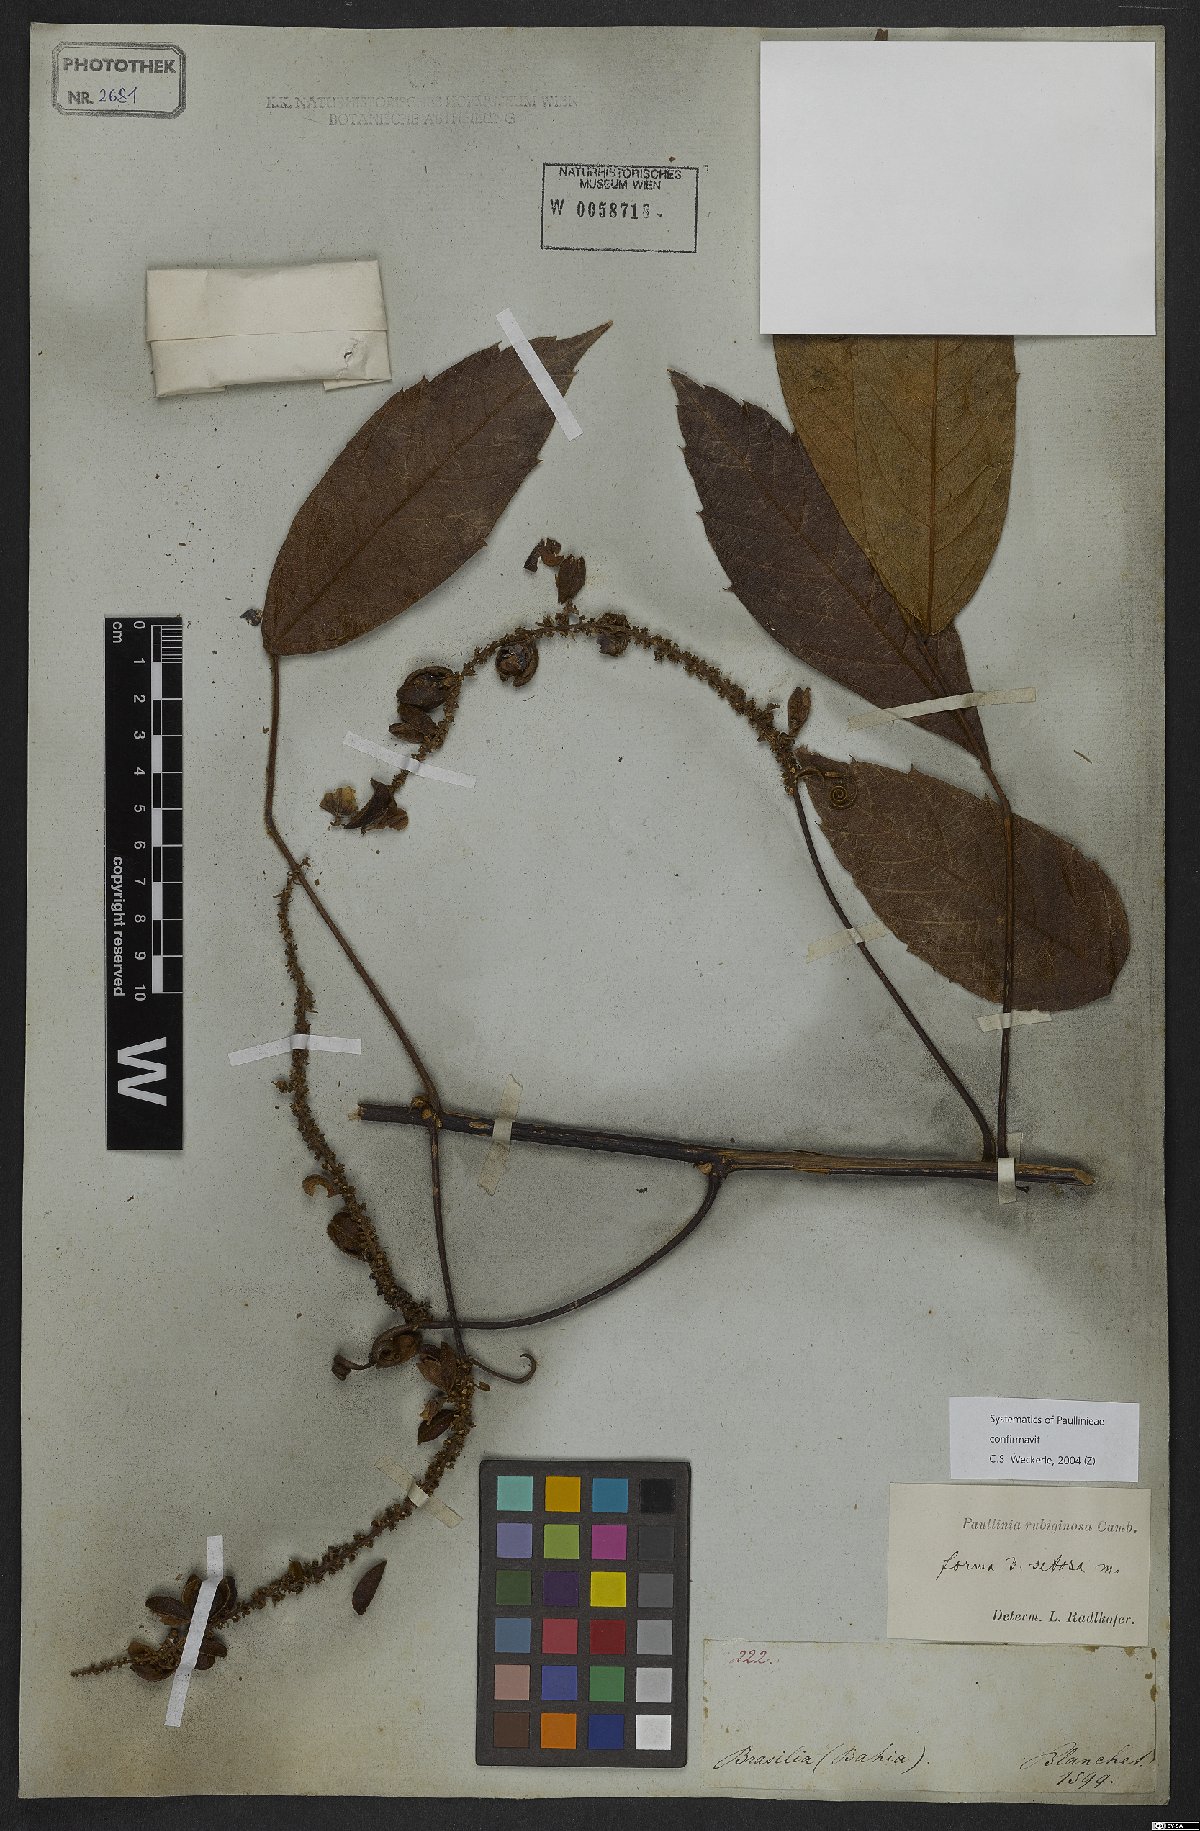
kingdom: Plantae
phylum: Tracheophyta
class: Magnoliopsida
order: Sapindales
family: Sapindaceae
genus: Paullinia
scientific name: Paullinia rubiginosa
